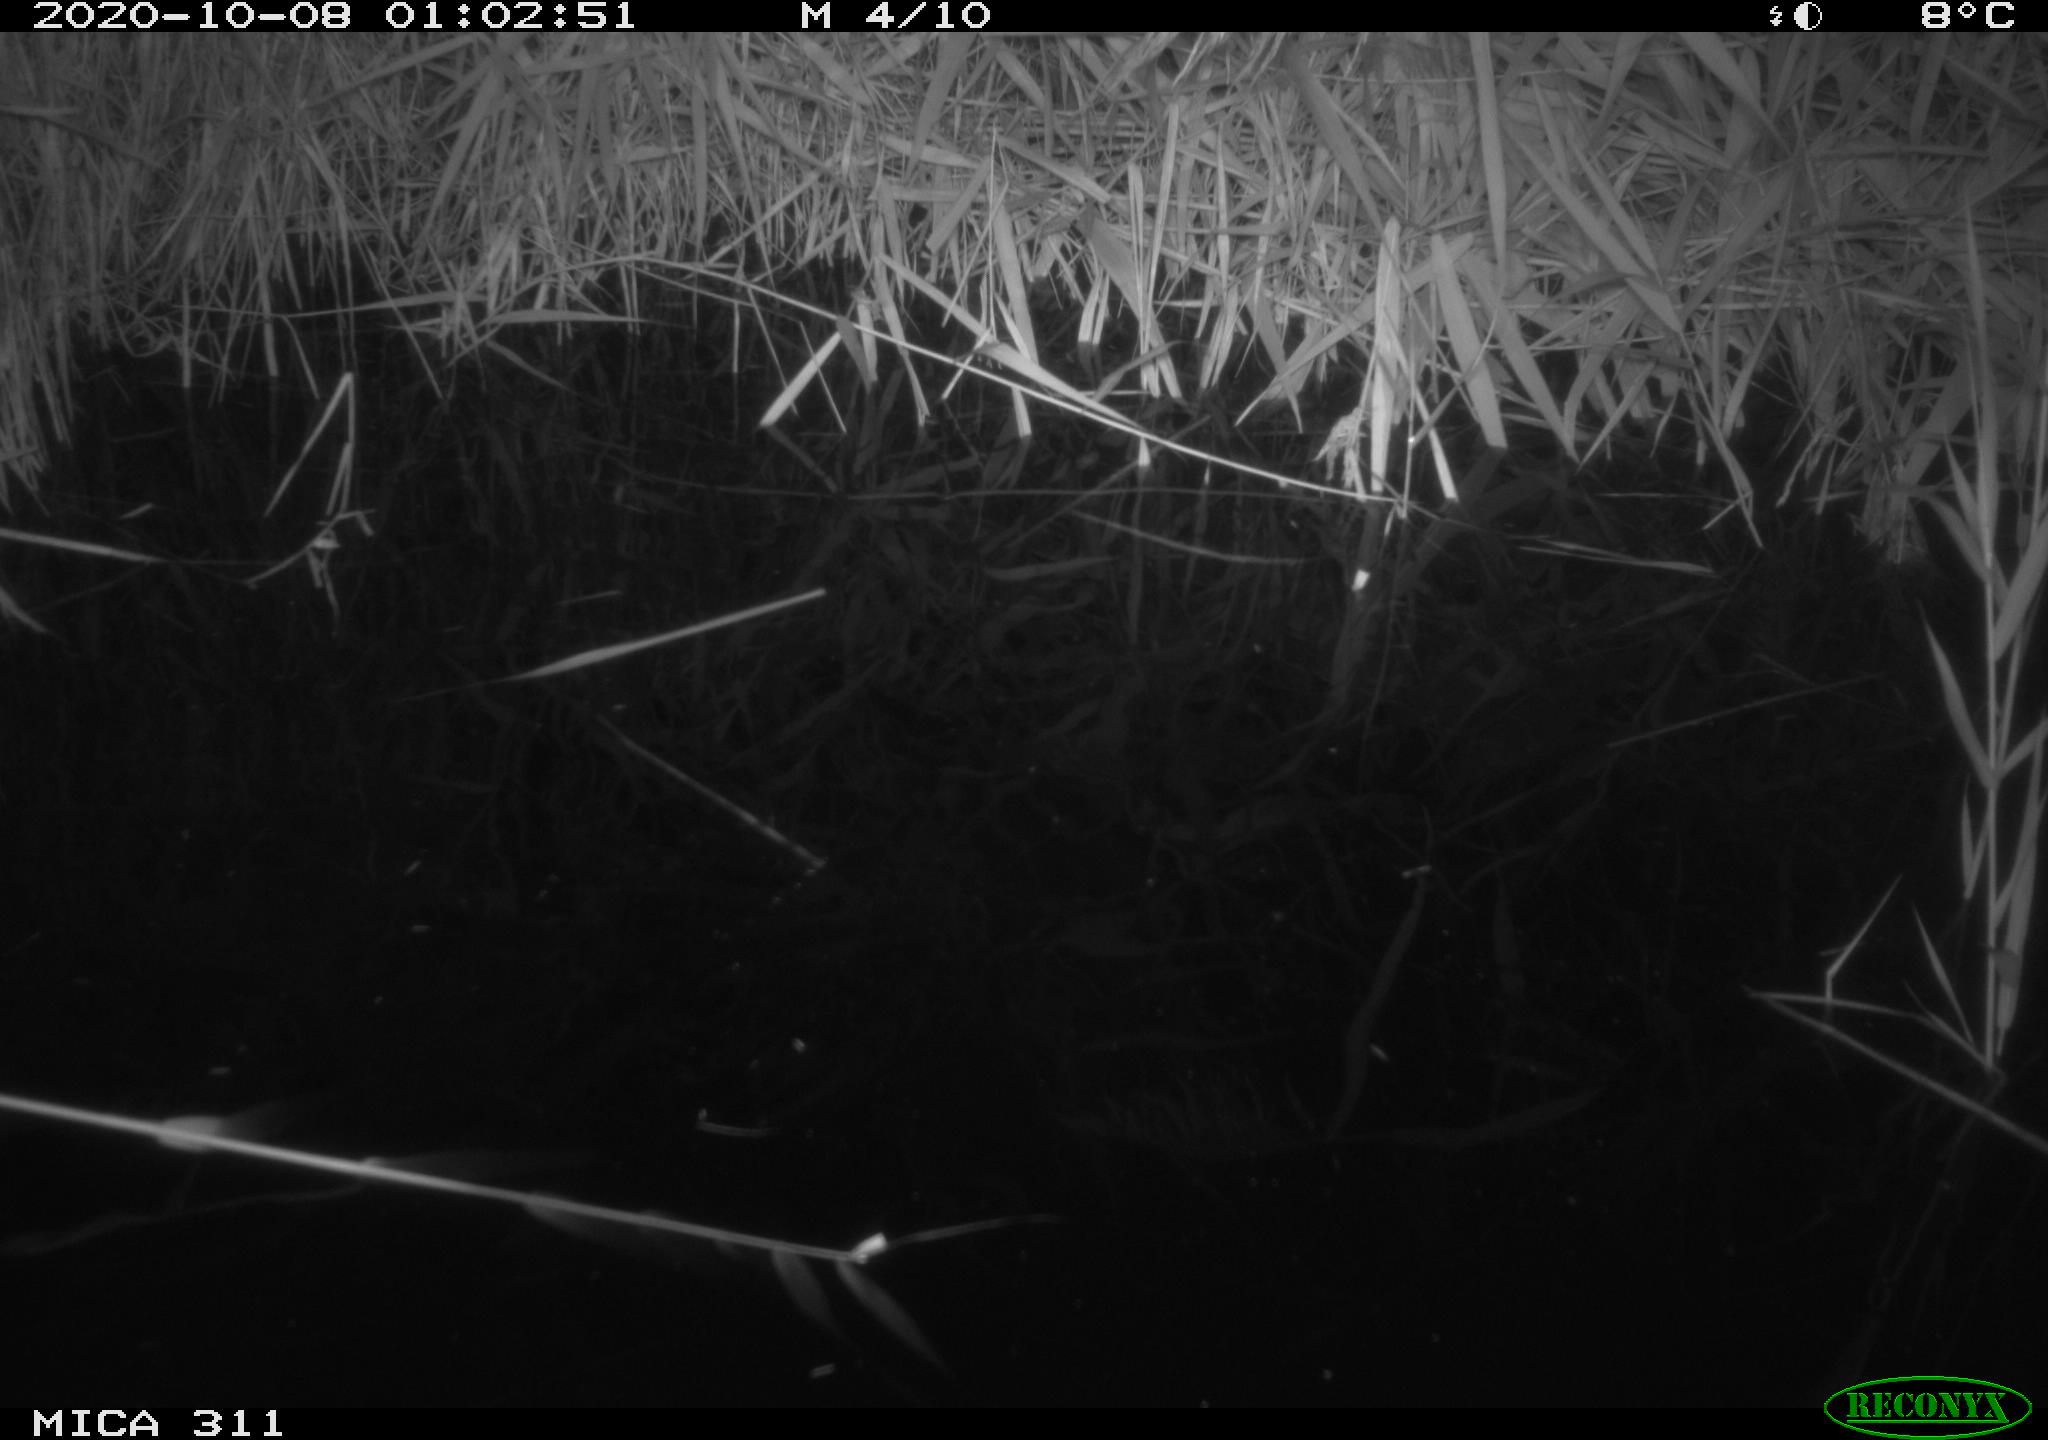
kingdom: Animalia
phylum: Chordata
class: Mammalia
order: Rodentia
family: Muridae
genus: Rattus
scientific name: Rattus norvegicus
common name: Brown rat
